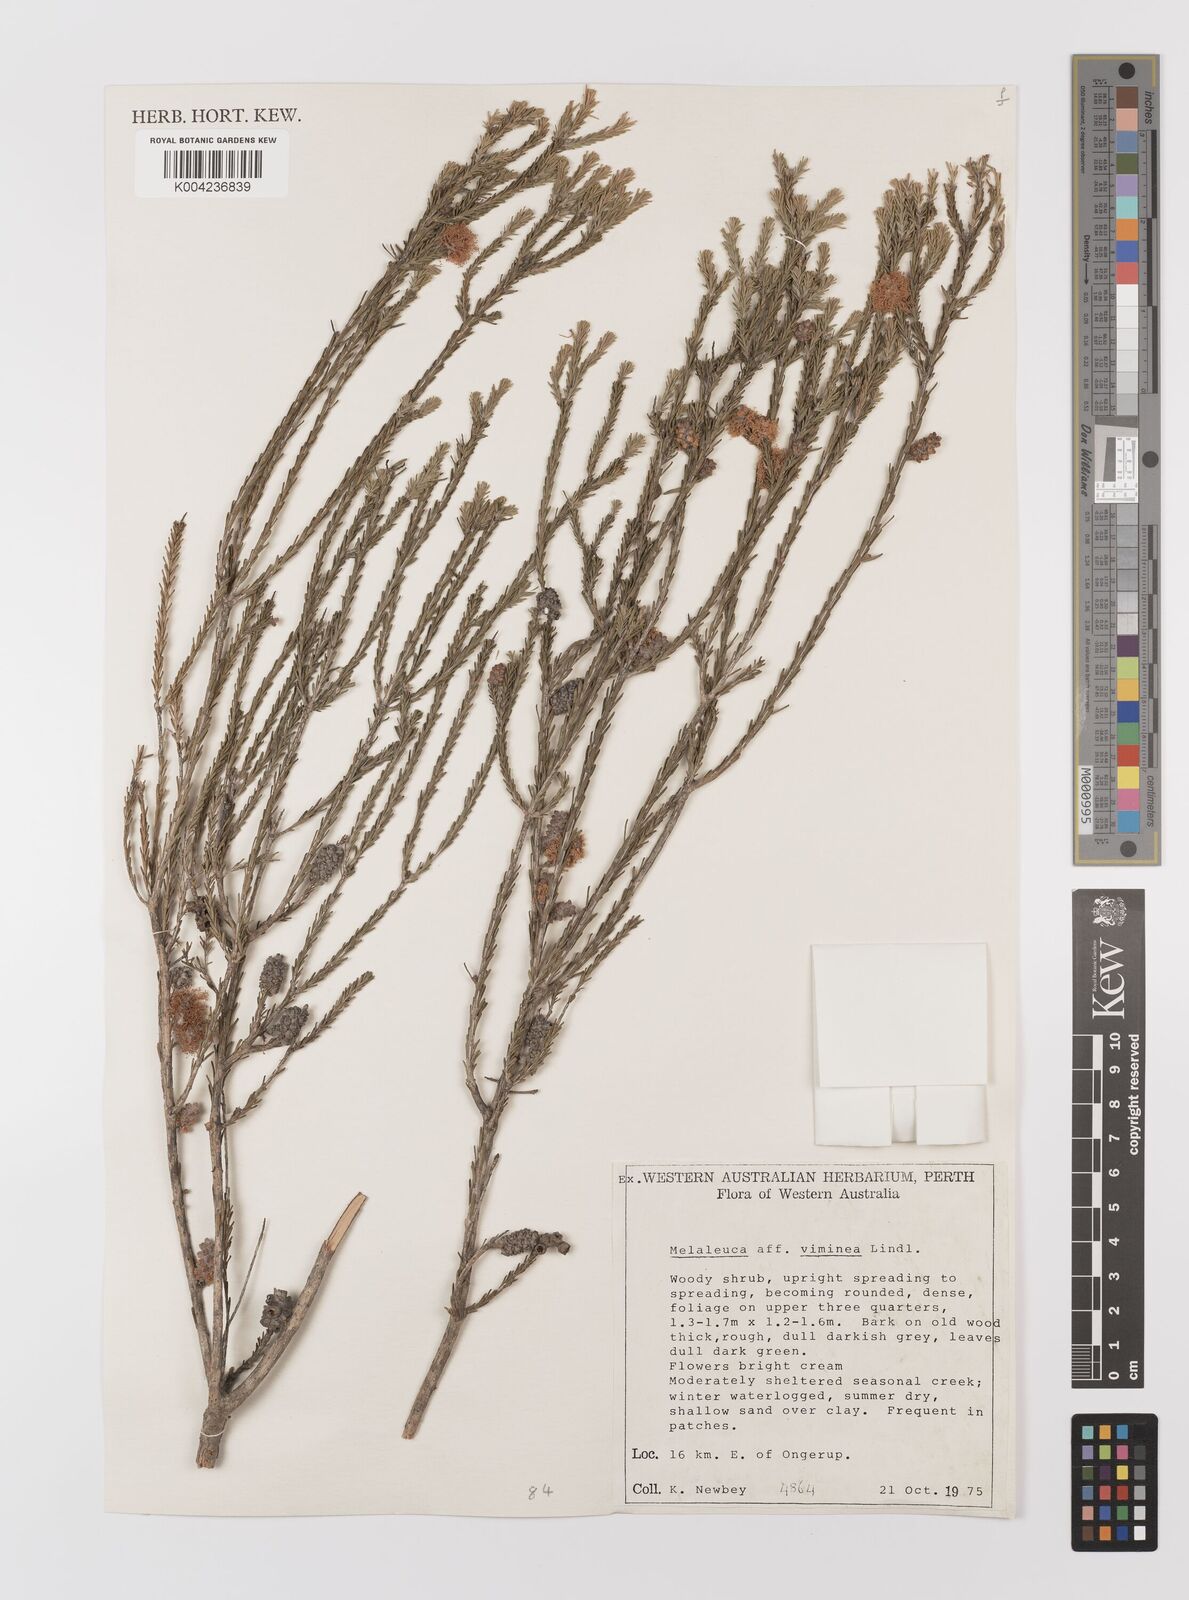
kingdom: Plantae
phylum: Tracheophyta
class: Magnoliopsida
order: Myrtales
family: Myrtaceae
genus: Melaleuca
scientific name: Melaleuca viminea
